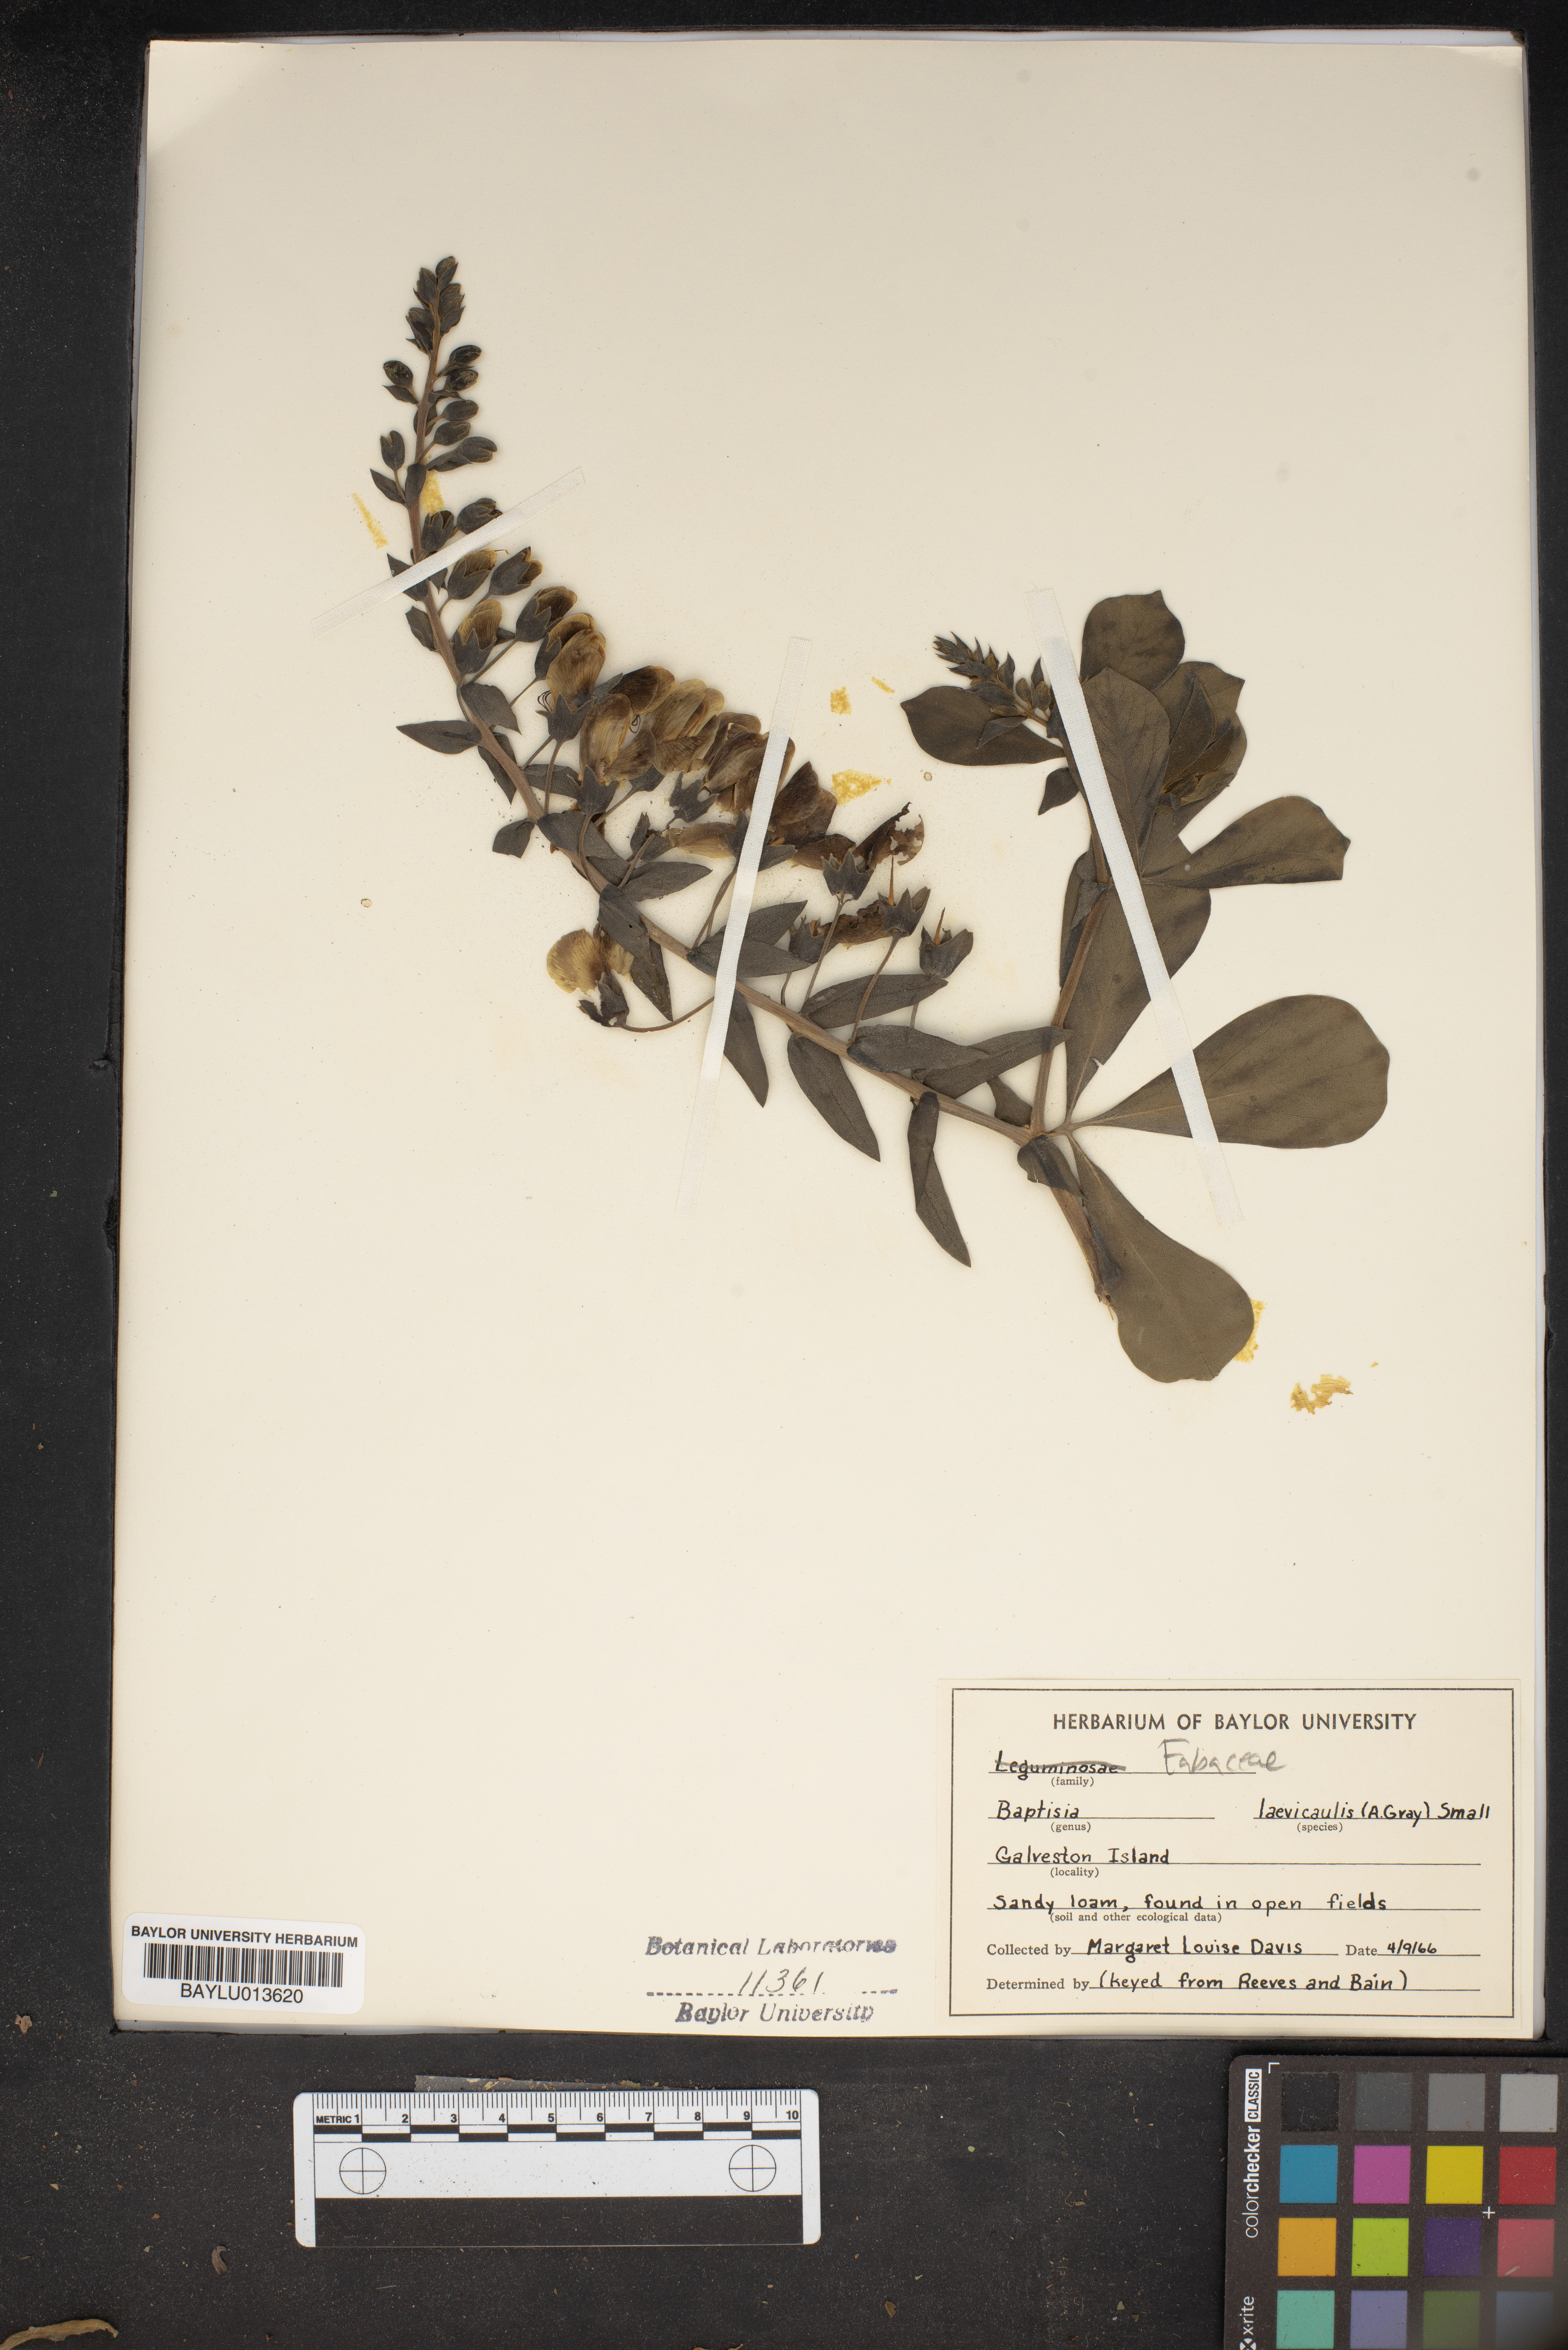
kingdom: Plantae
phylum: Tracheophyta
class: Magnoliopsida
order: Fabales
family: Fabaceae
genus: Baptisia
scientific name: Baptisia bracteata
